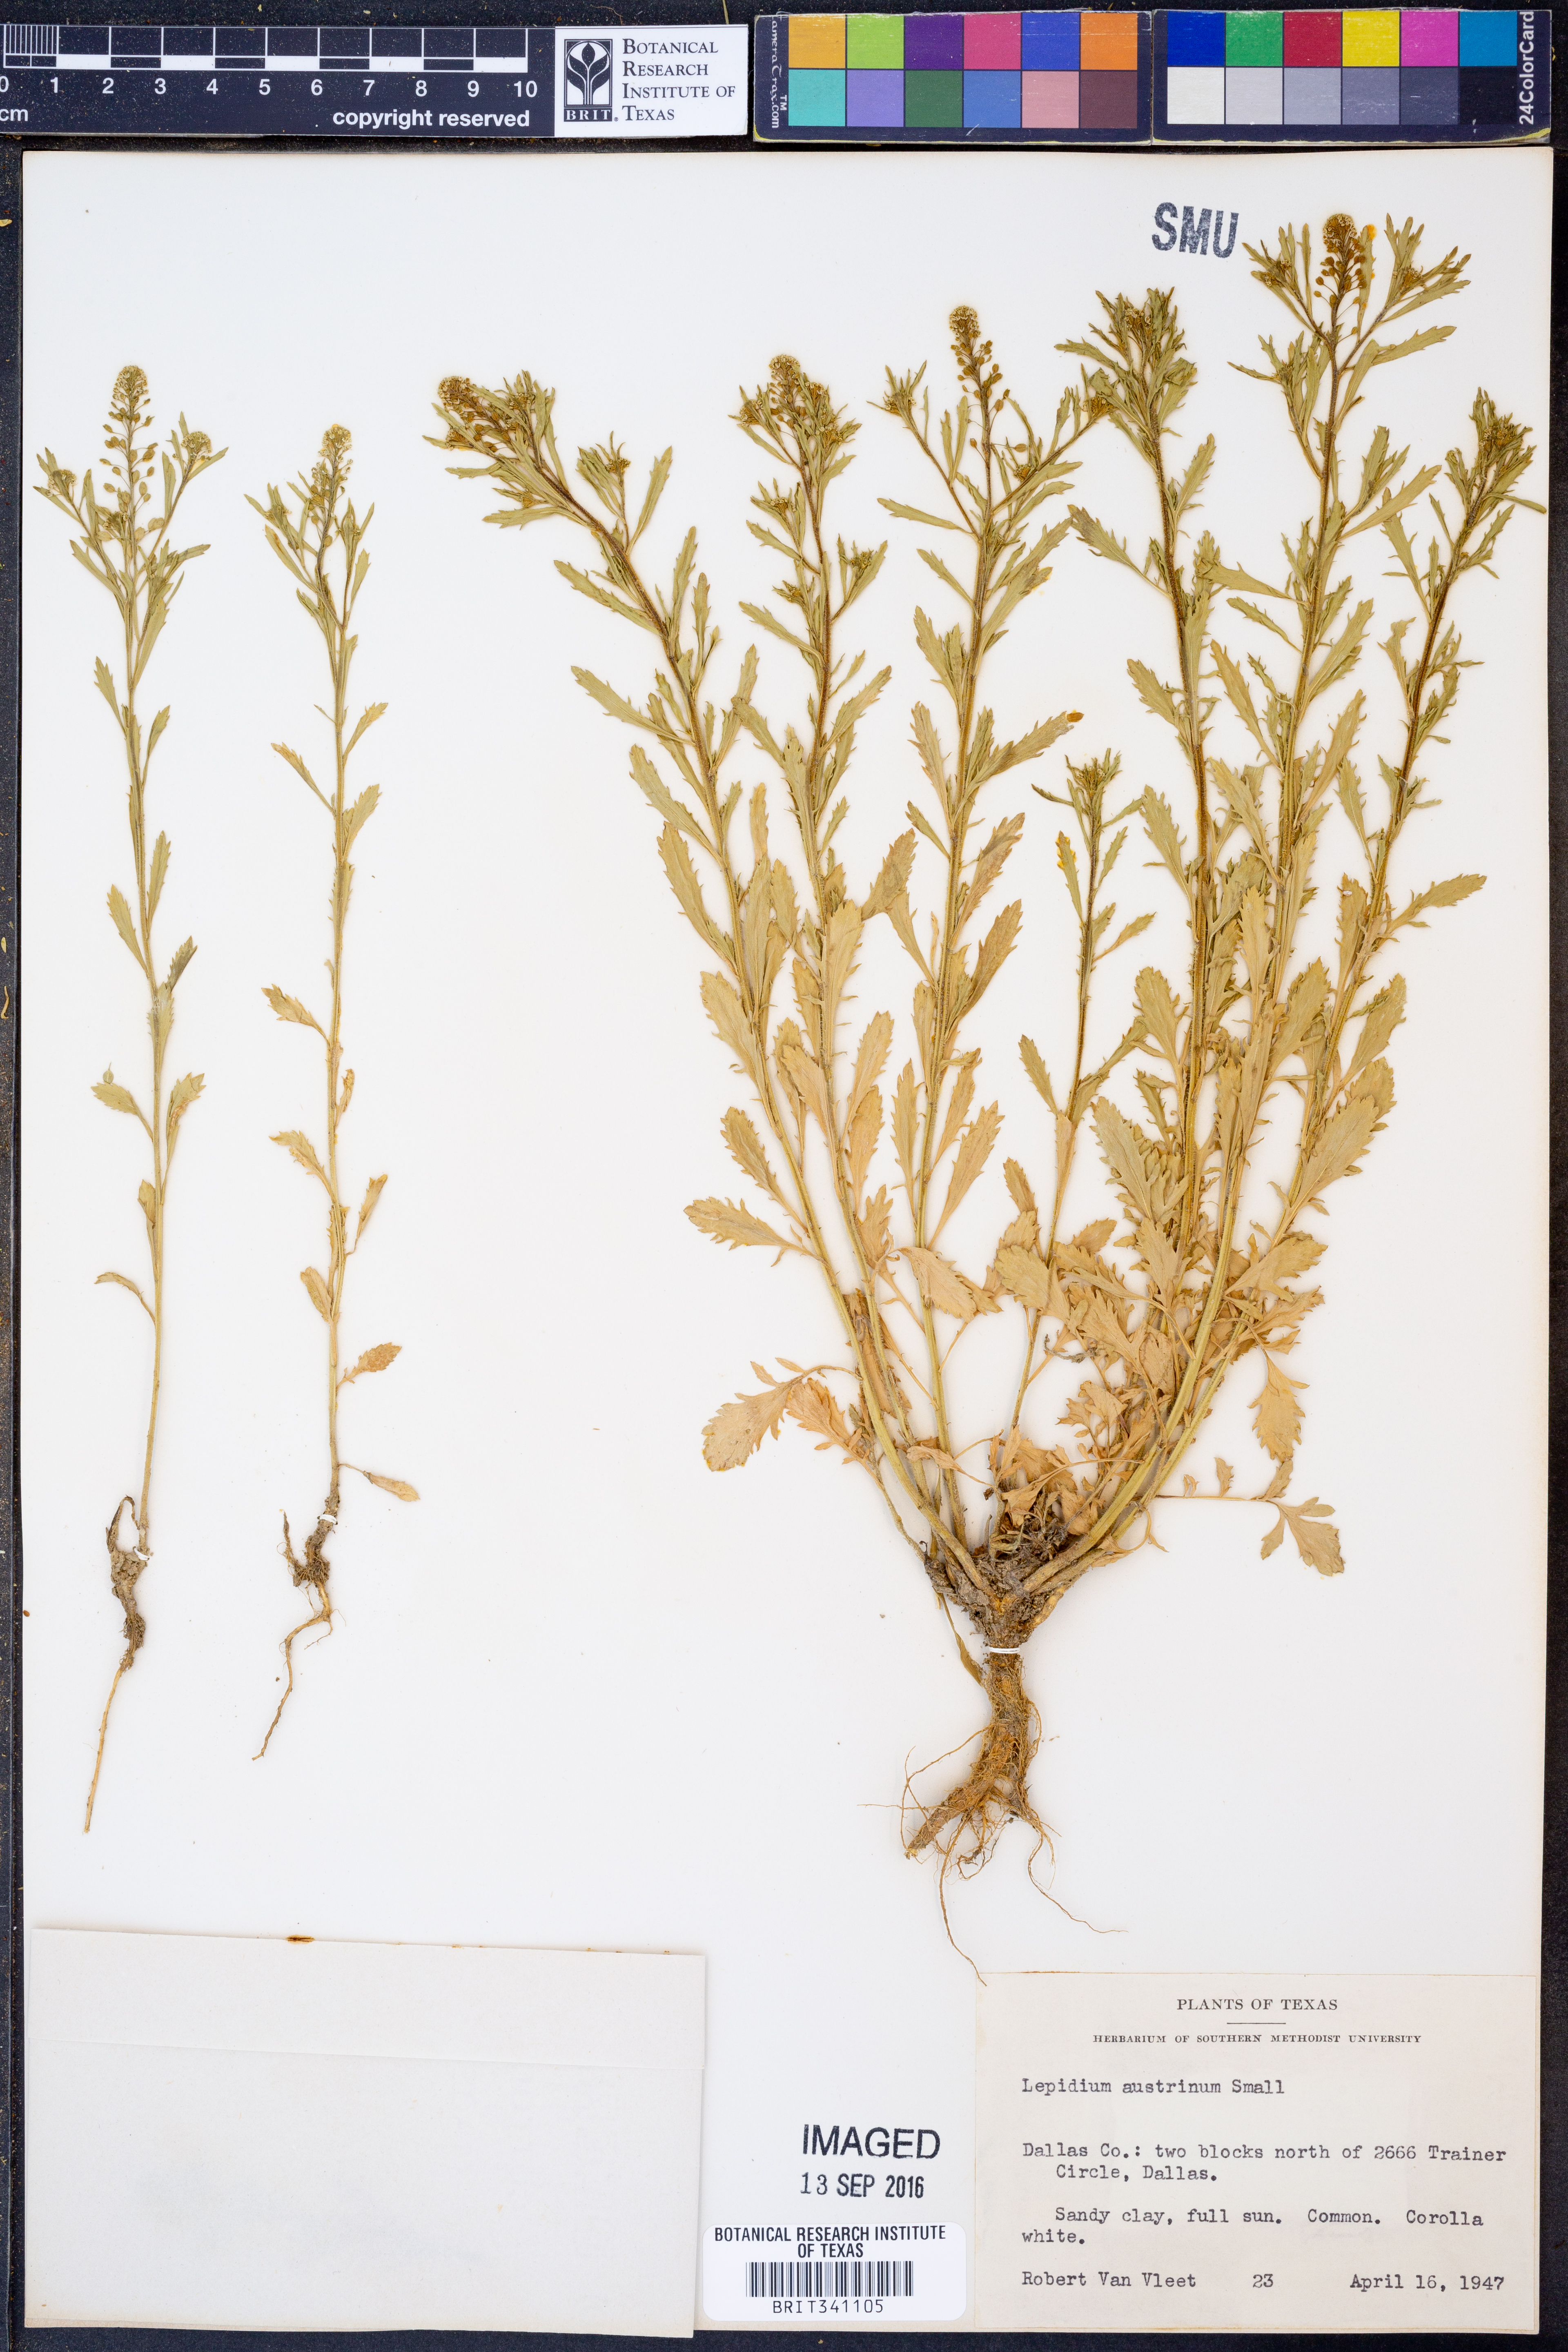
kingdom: Plantae
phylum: Tracheophyta
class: Magnoliopsida
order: Brassicales
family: Brassicaceae
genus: Lepidium
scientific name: Lepidium austrinum
